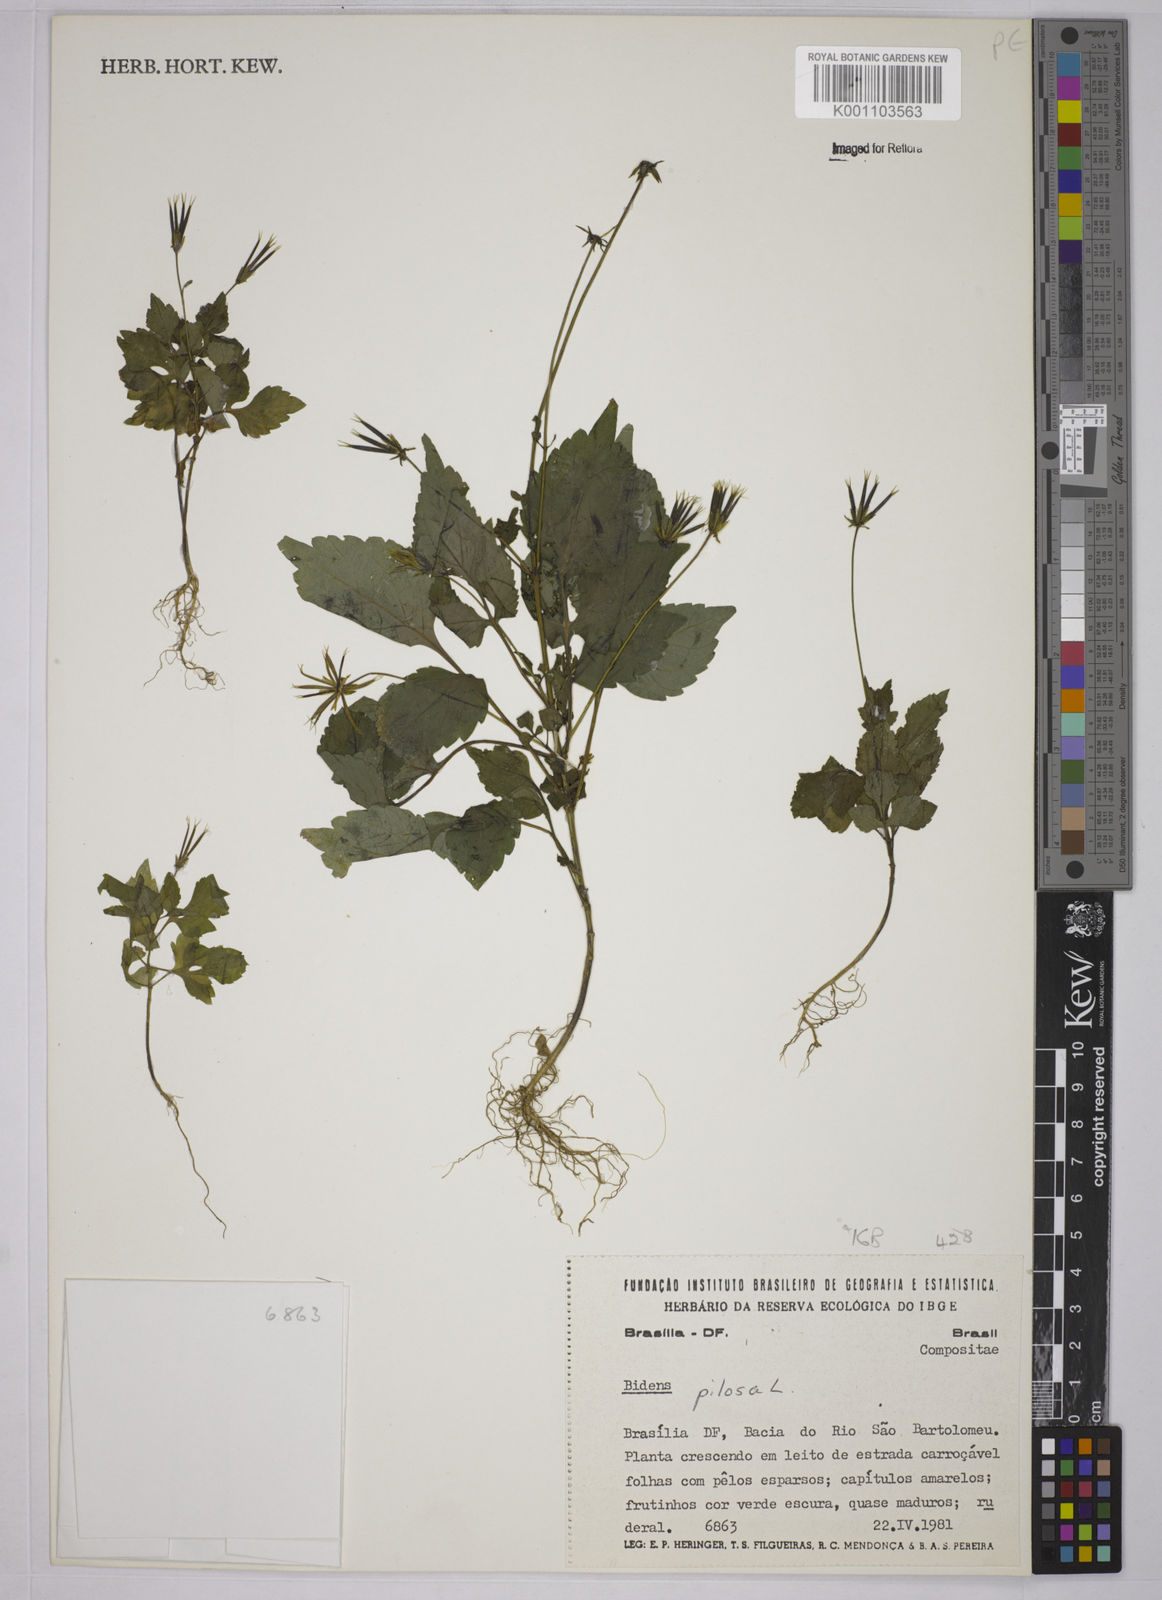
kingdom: Plantae
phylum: Tracheophyta
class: Magnoliopsida
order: Asterales
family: Asteraceae
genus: Bidens
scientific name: Bidens pilosa
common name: Black-jack
